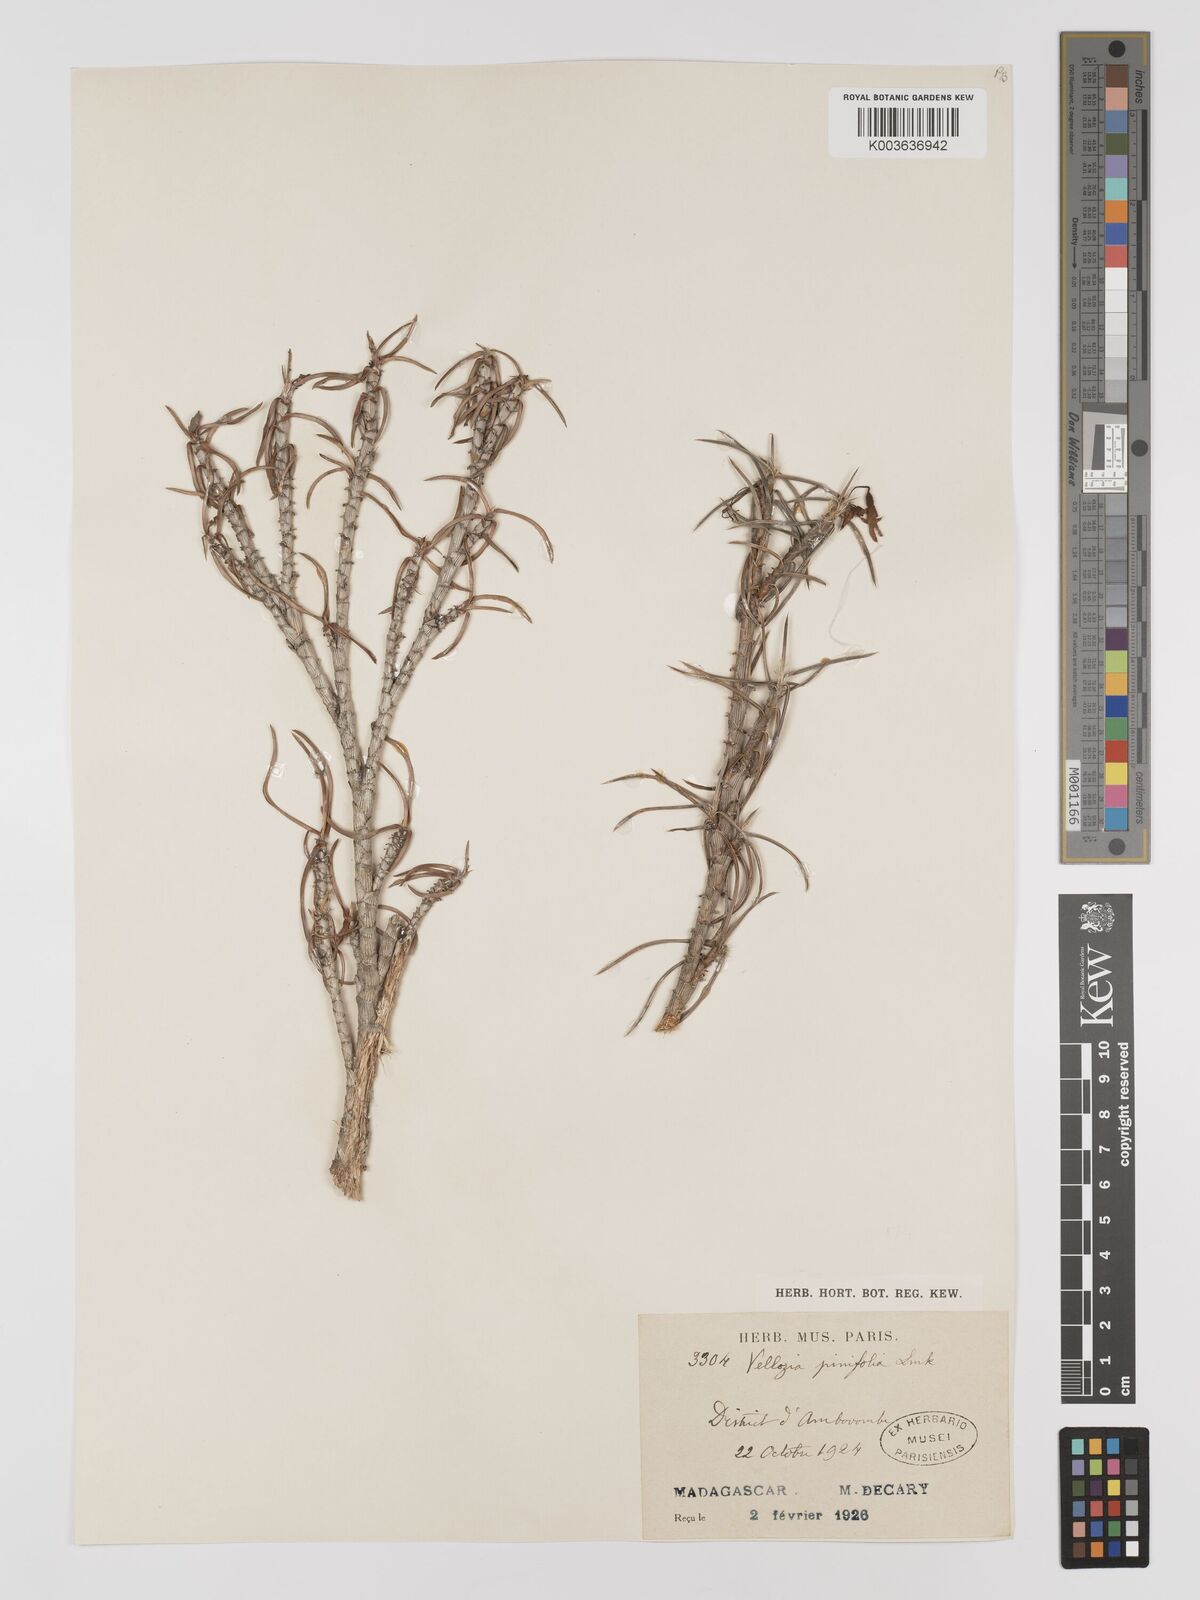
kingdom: Plantae
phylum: Tracheophyta
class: Liliopsida
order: Pandanales
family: Velloziaceae
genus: Xerophyta
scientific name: Xerophyta pinifolia
